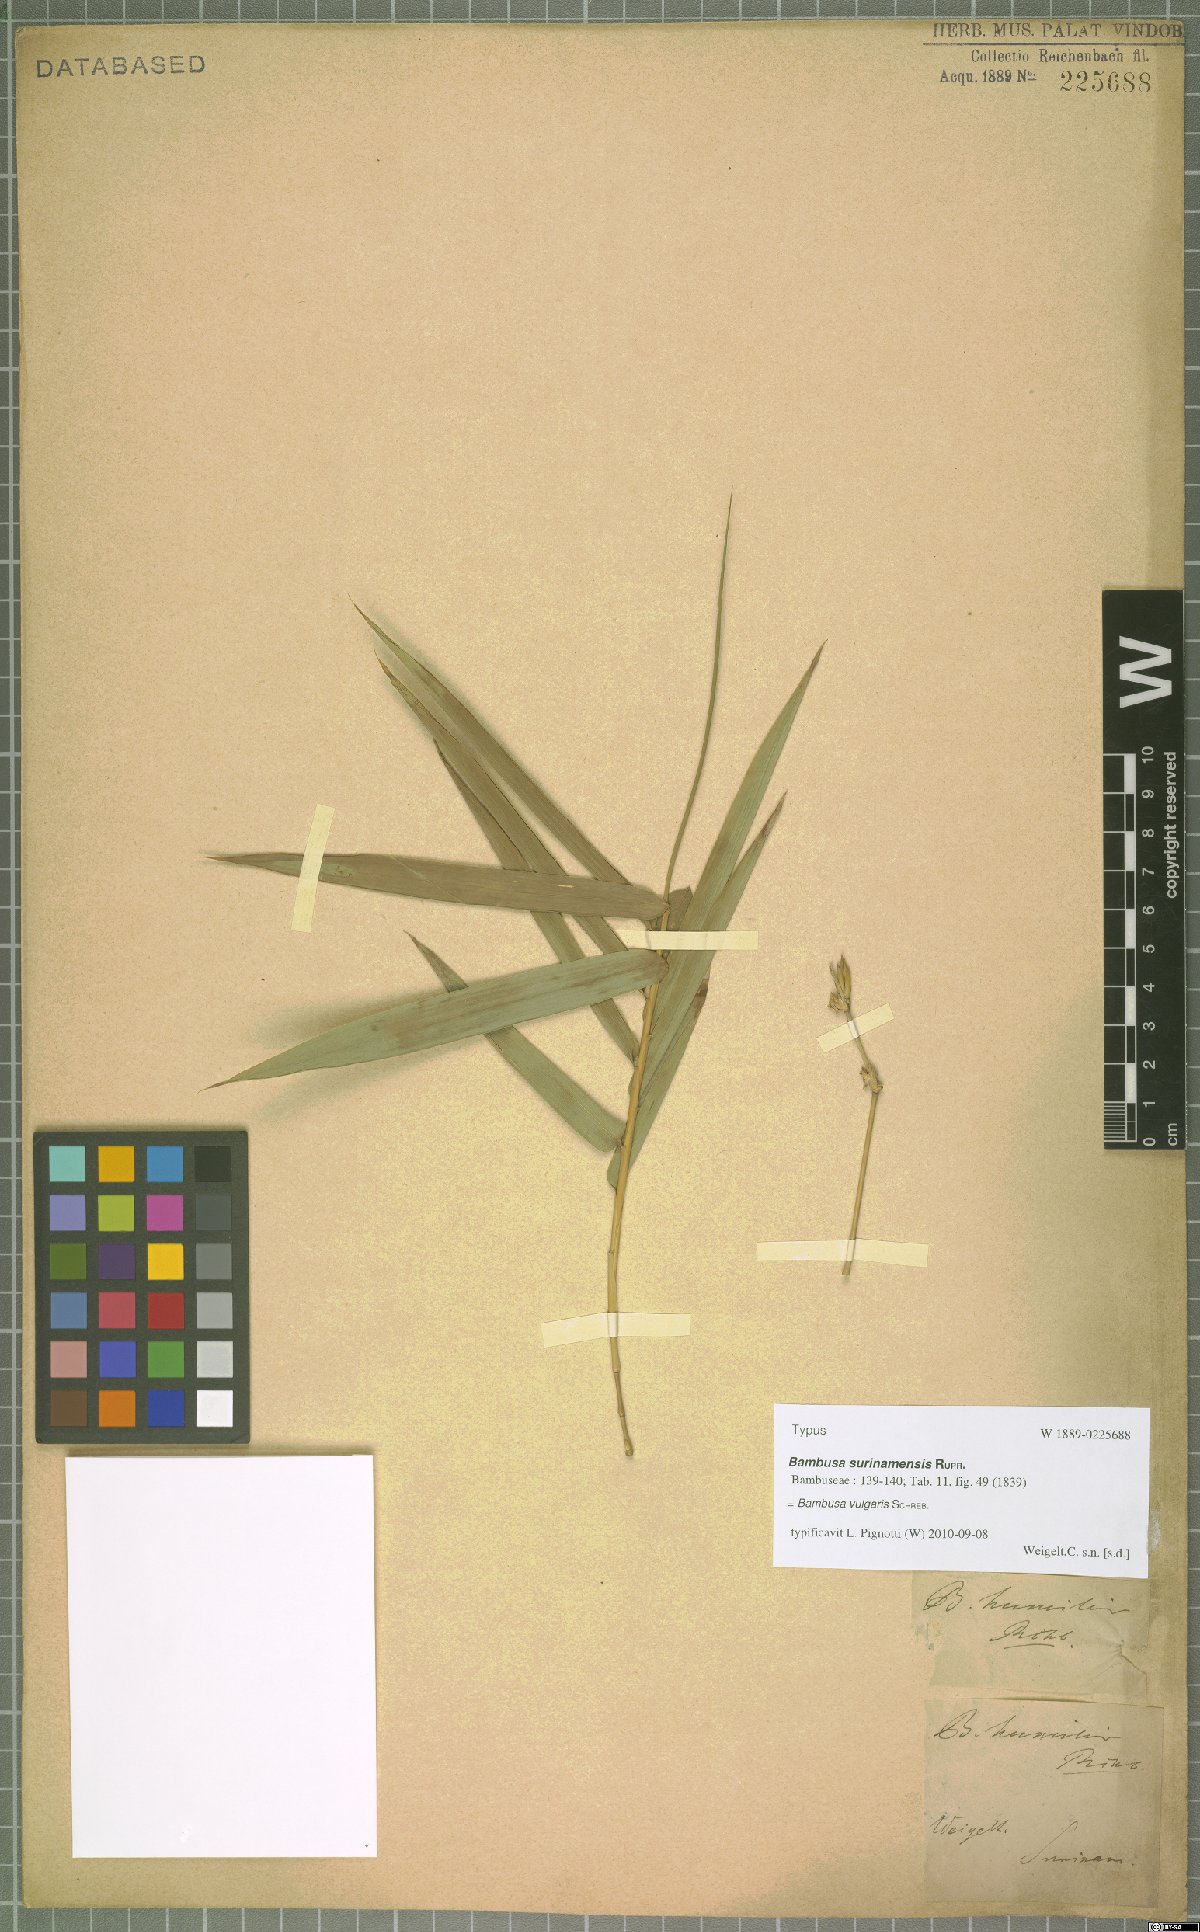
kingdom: Plantae
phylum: Tracheophyta
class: Liliopsida
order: Poales
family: Poaceae
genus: Bambusa
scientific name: Bambusa vulgaris
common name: Common bamboo
